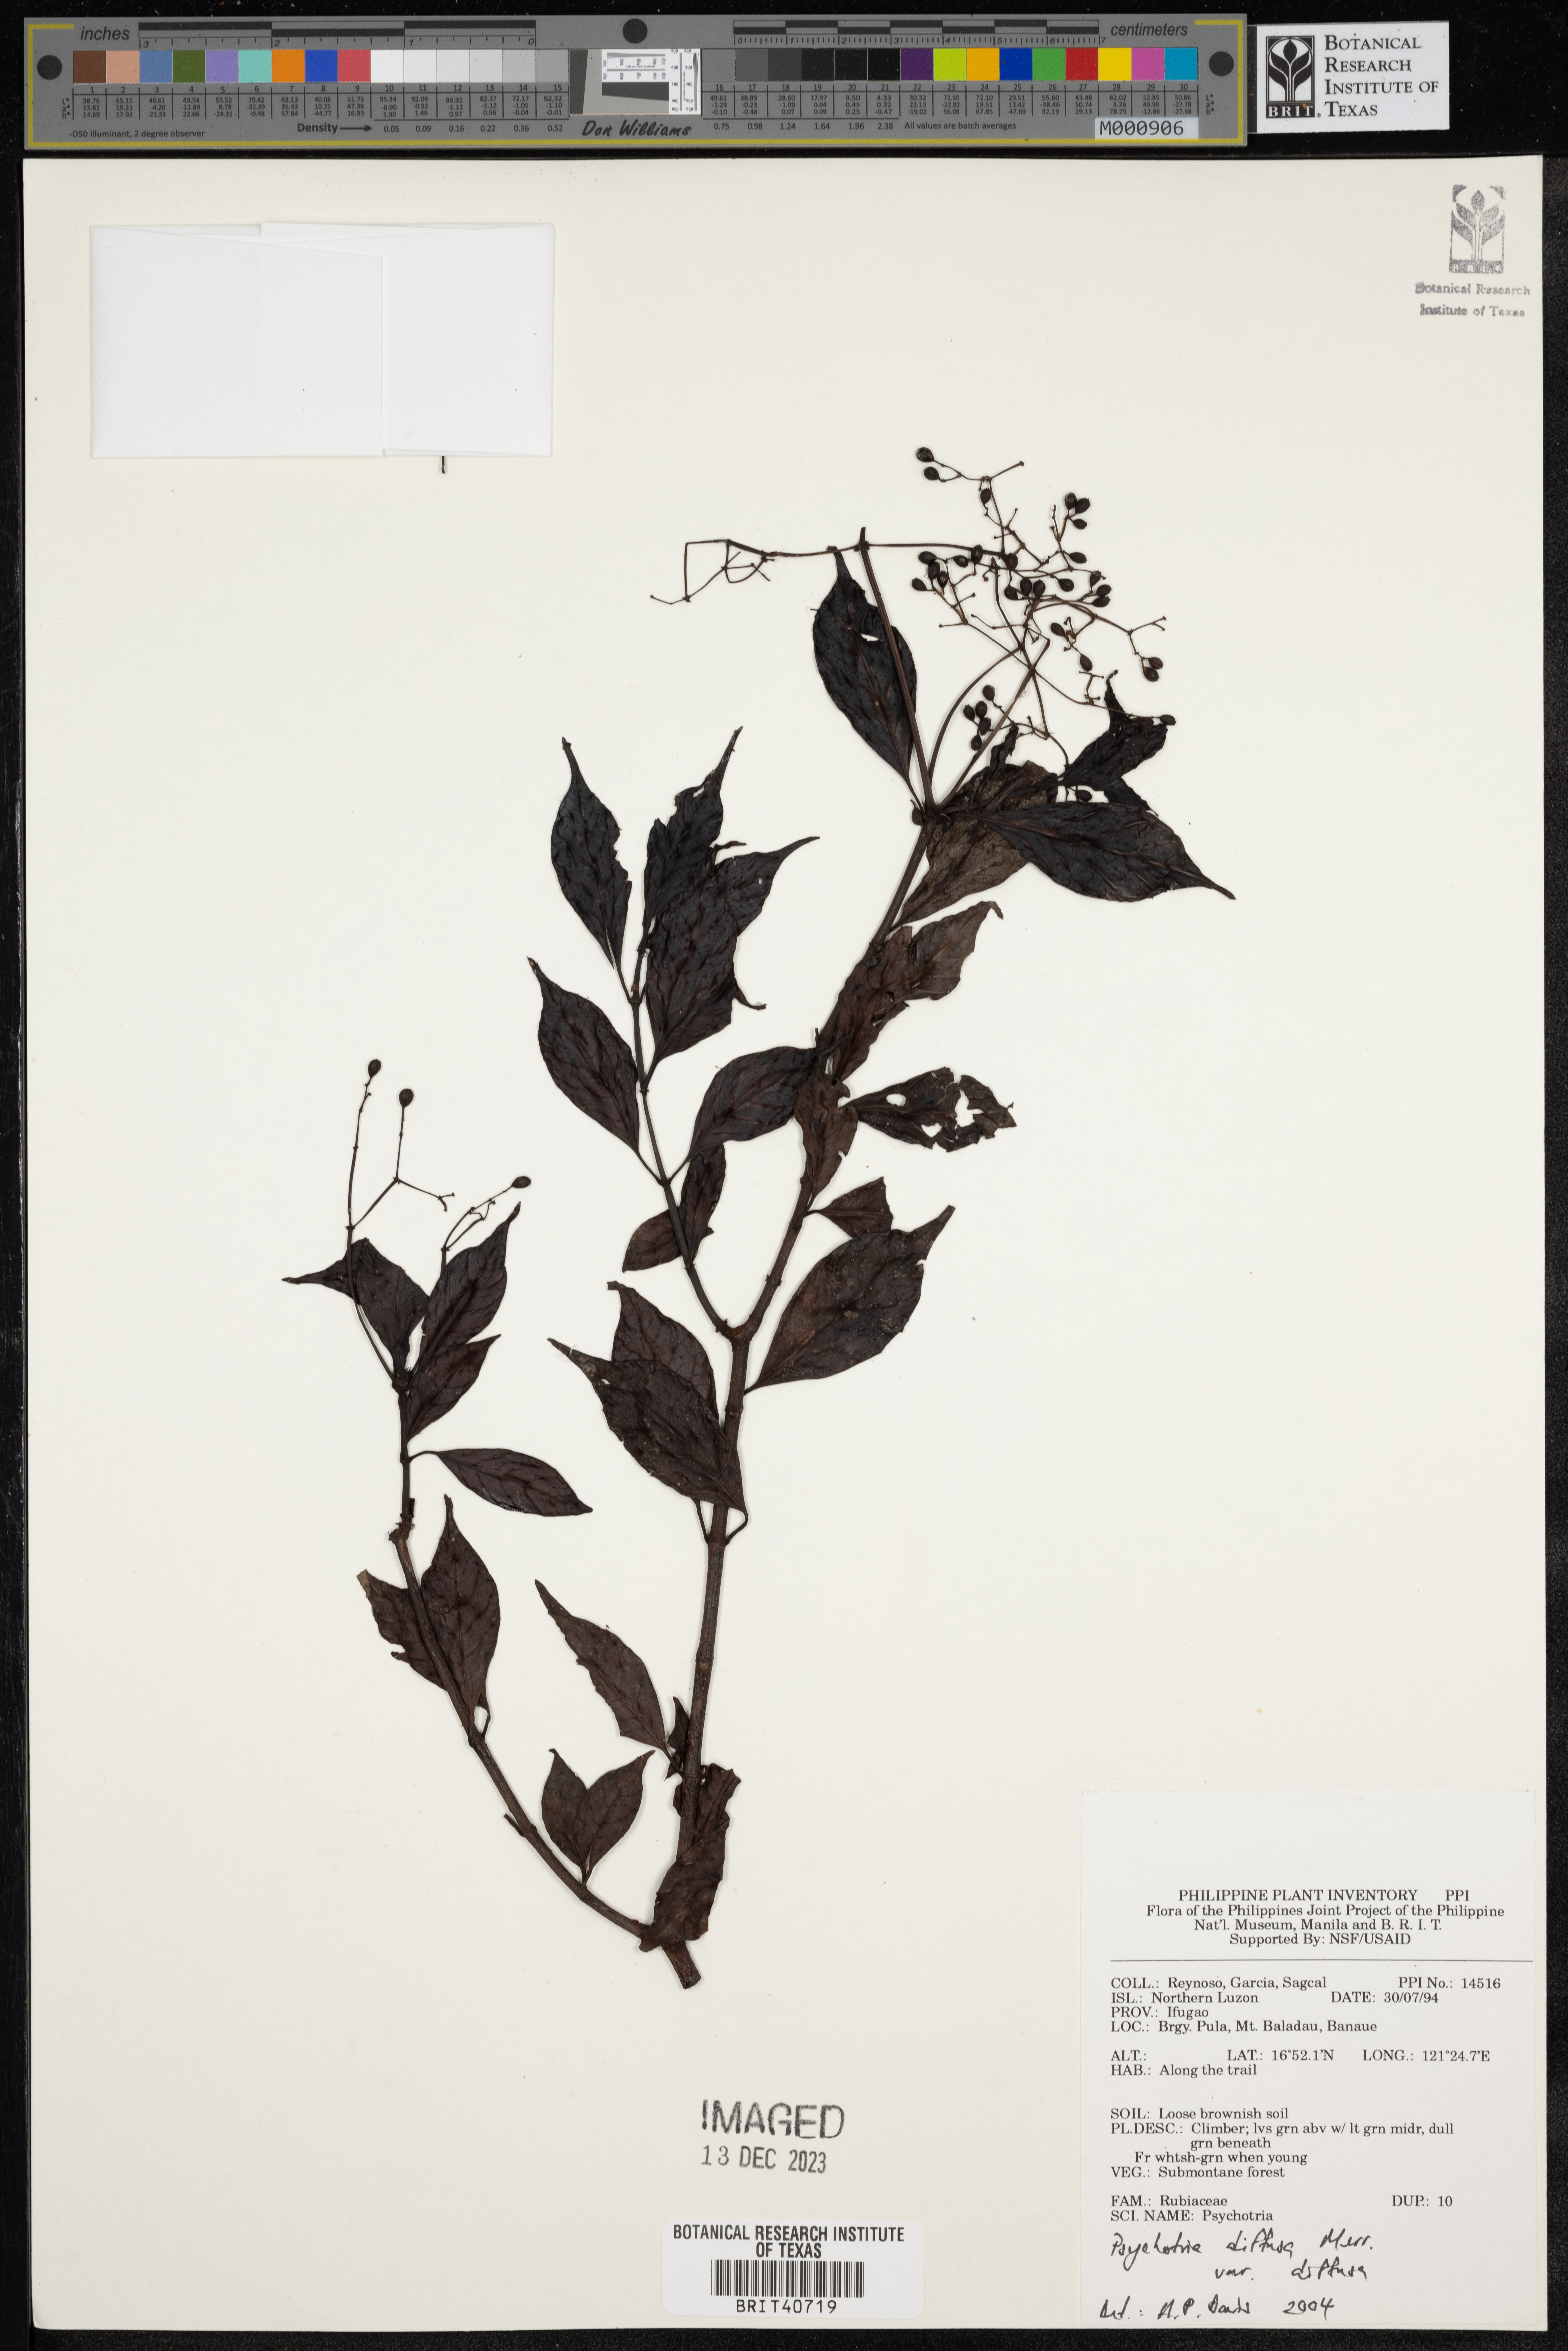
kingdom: Plantae
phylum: Tracheophyta
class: Magnoliopsida
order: Gentianales
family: Rubiaceae
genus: Psychotria
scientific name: Psychotria diffusa
